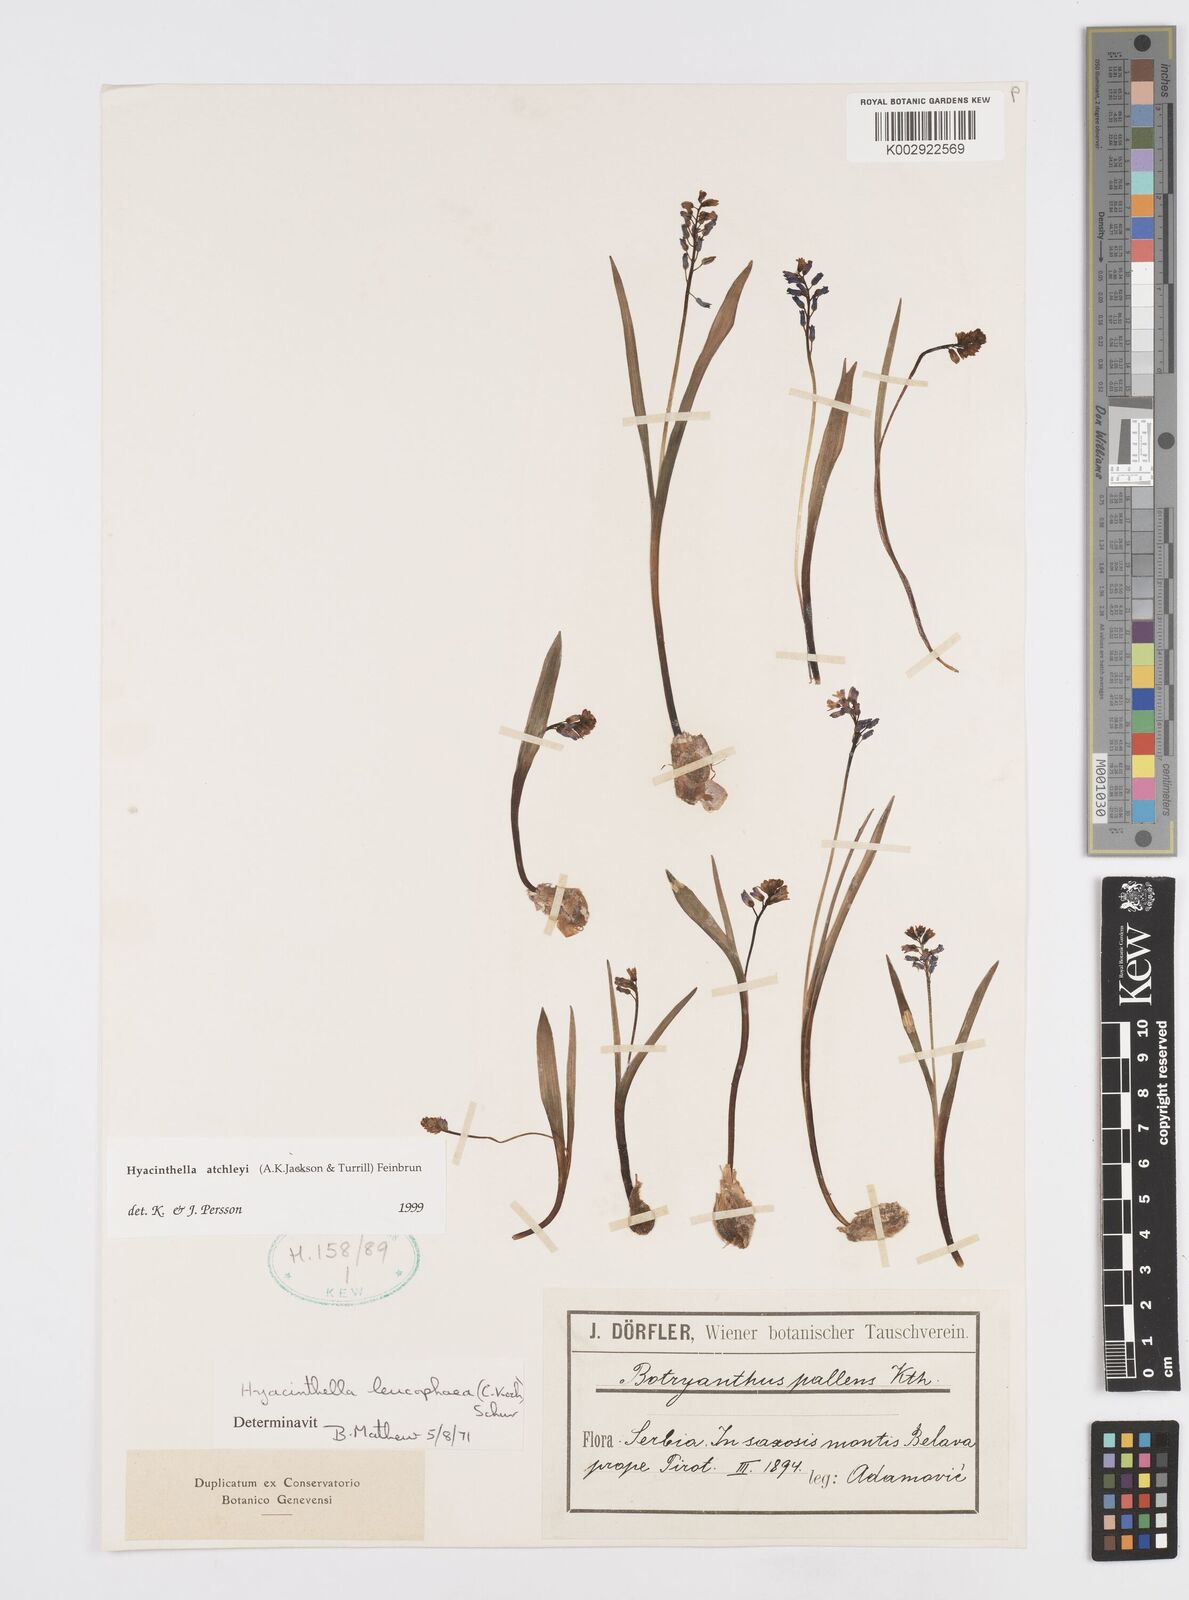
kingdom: Plantae
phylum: Tracheophyta
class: Liliopsida
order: Asparagales
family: Asparagaceae
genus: Hyacinthella
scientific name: Hyacinthella leucophaea
